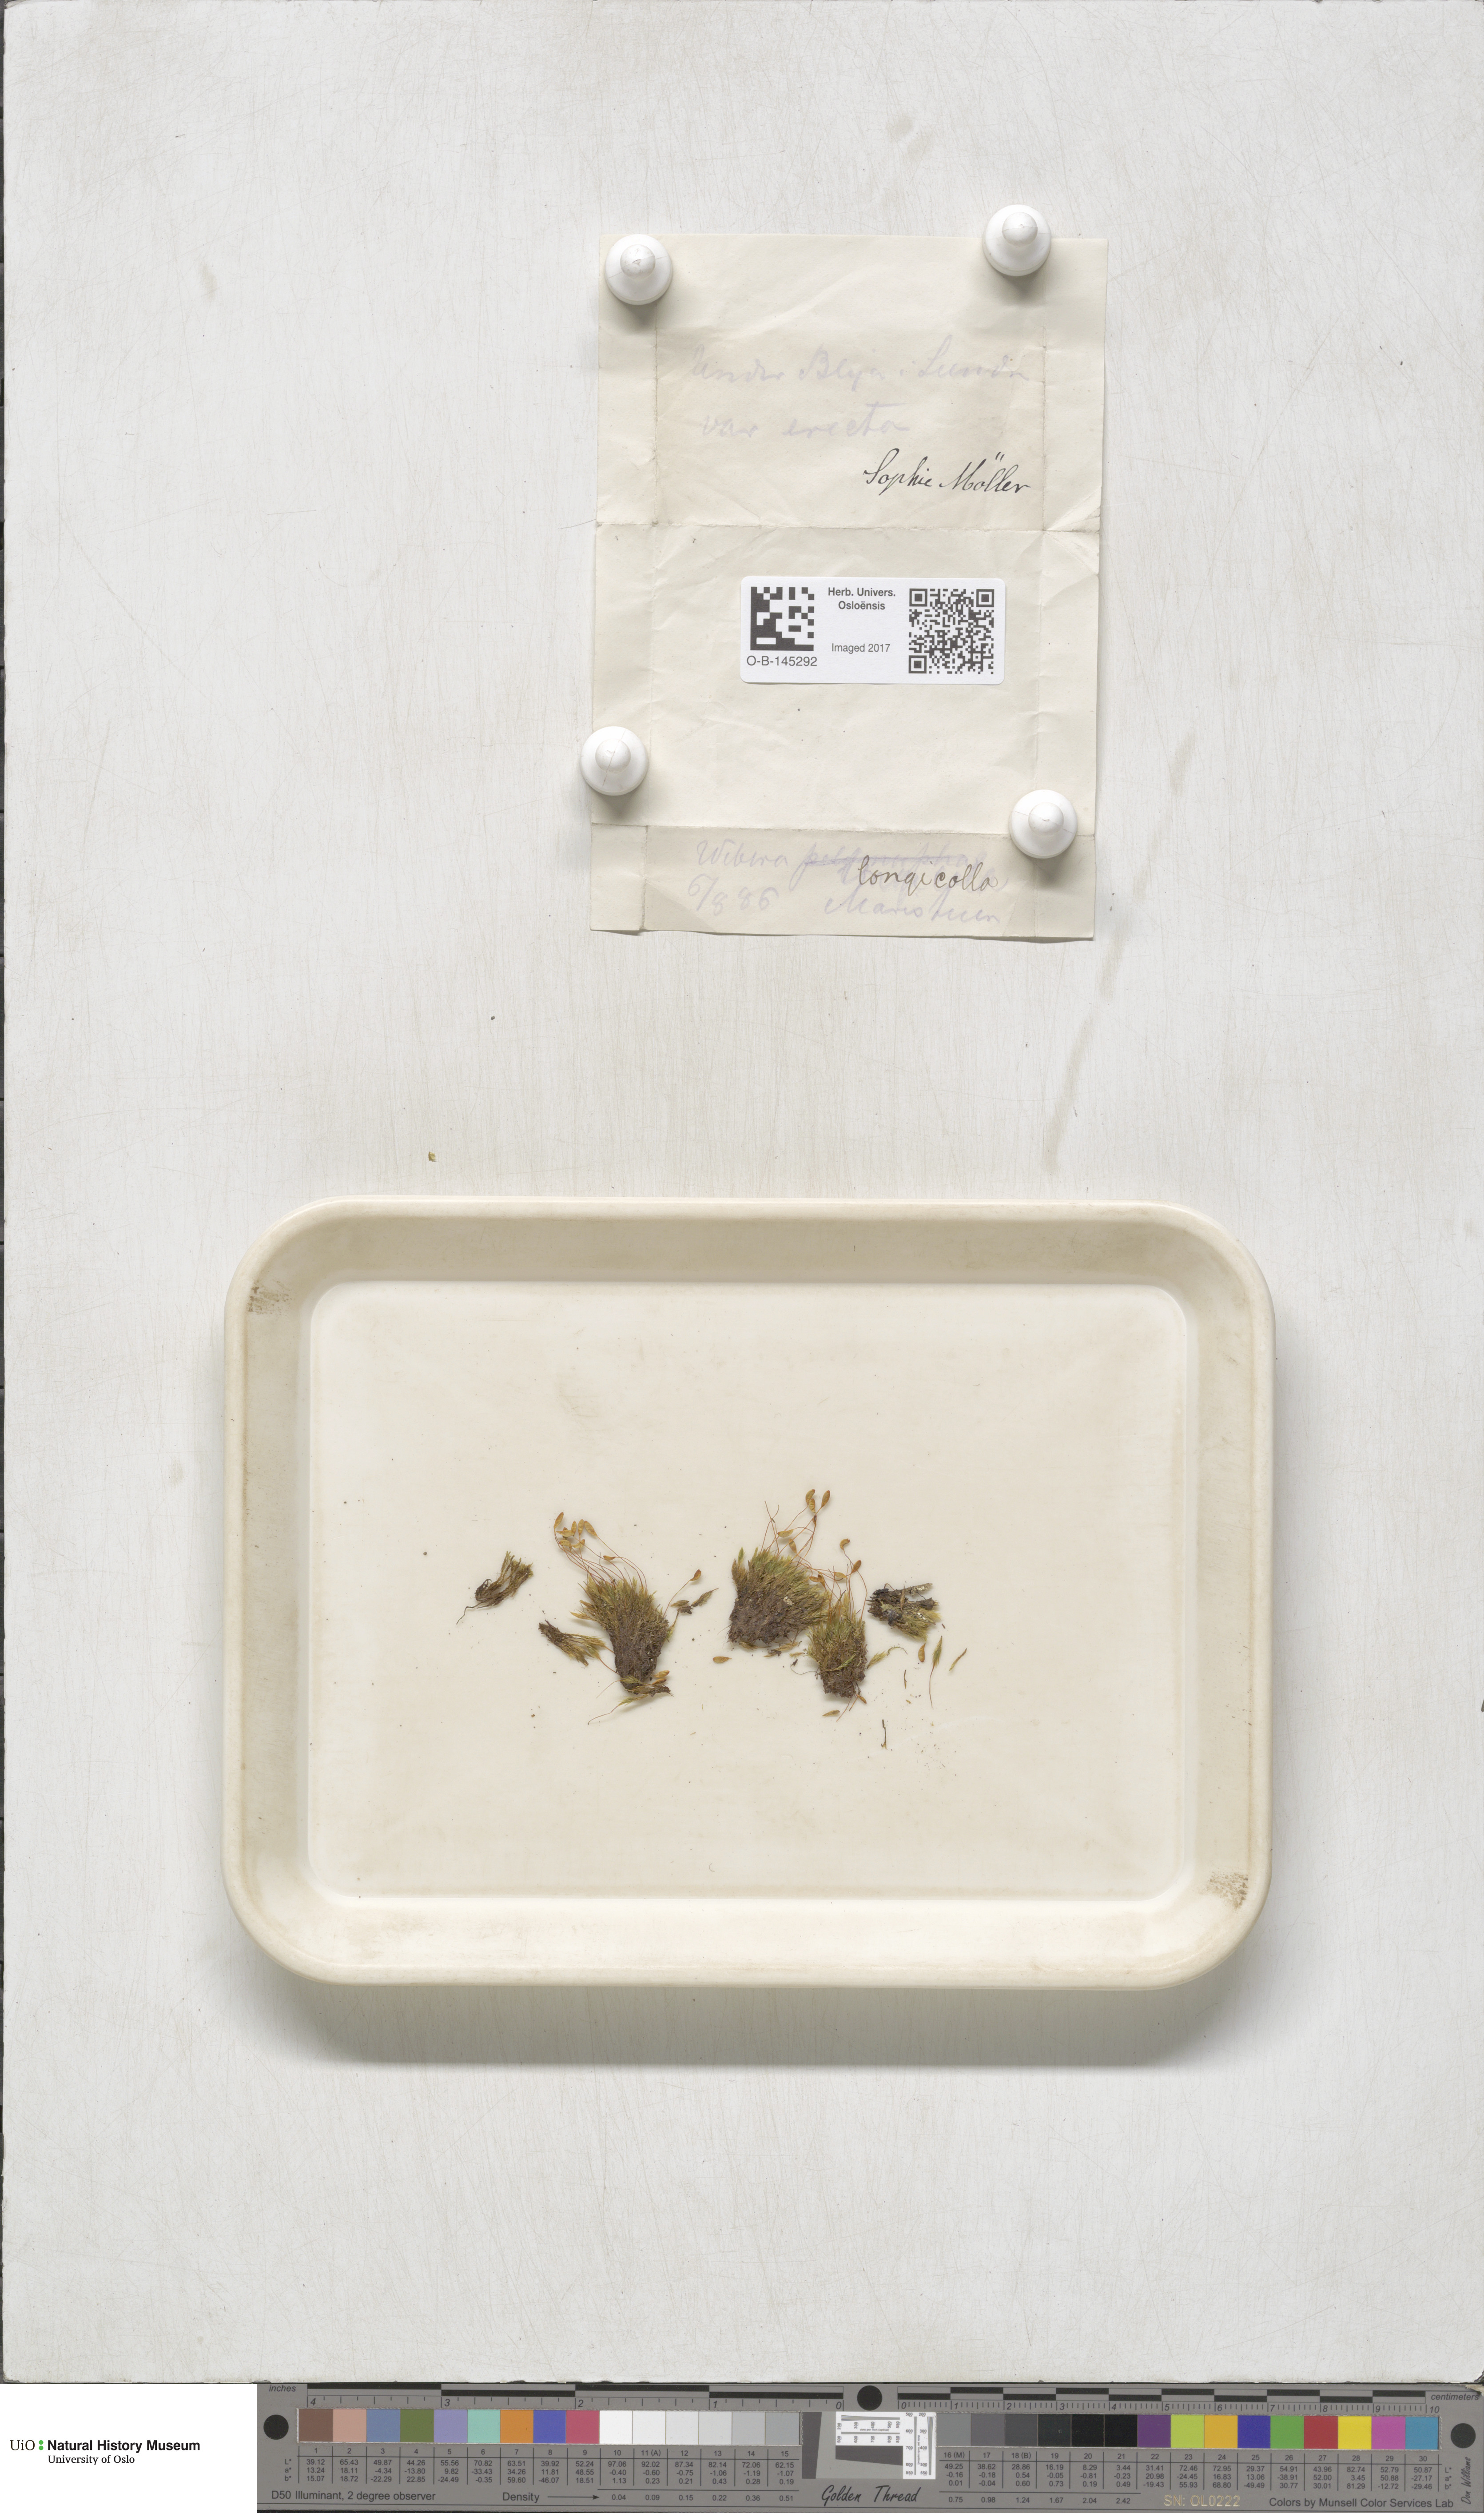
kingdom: Plantae
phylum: Bryophyta
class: Bryopsida
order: Bryales
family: Mniaceae
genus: Pohlia
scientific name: Pohlia longicolla
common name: Long-necked nodding moss
